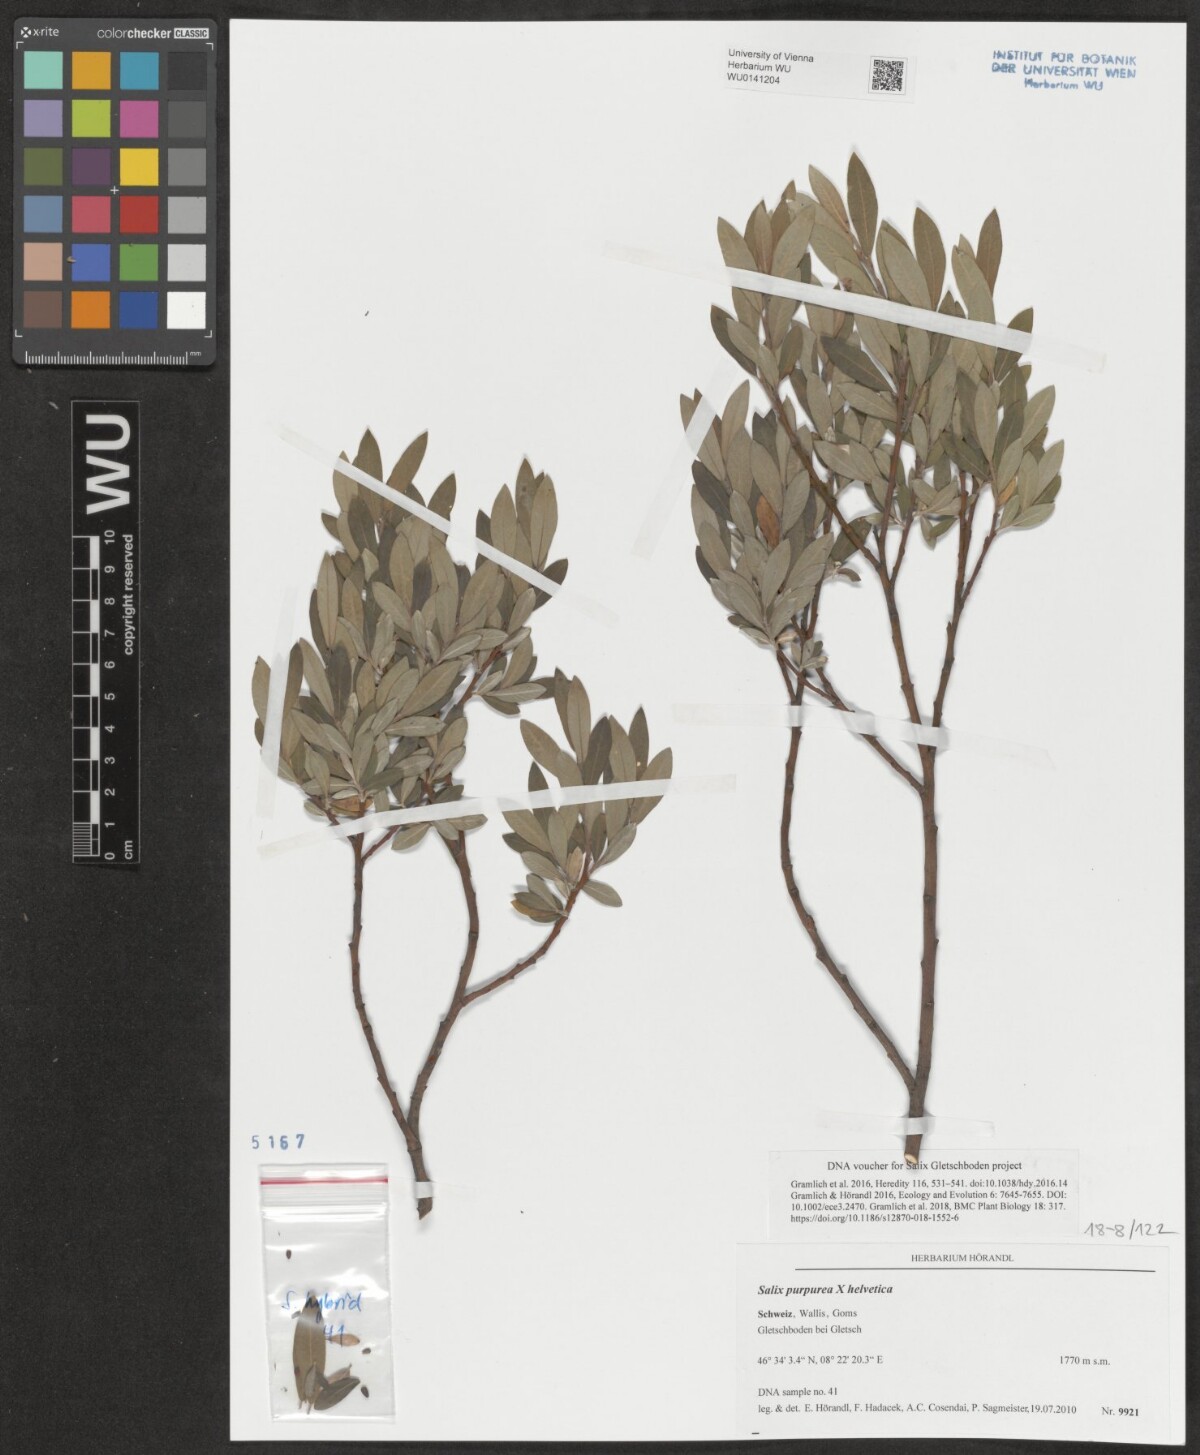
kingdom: Plantae
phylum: Tracheophyta
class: Magnoliopsida
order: Malpighiales
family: Salicaceae
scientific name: Salicaceae
